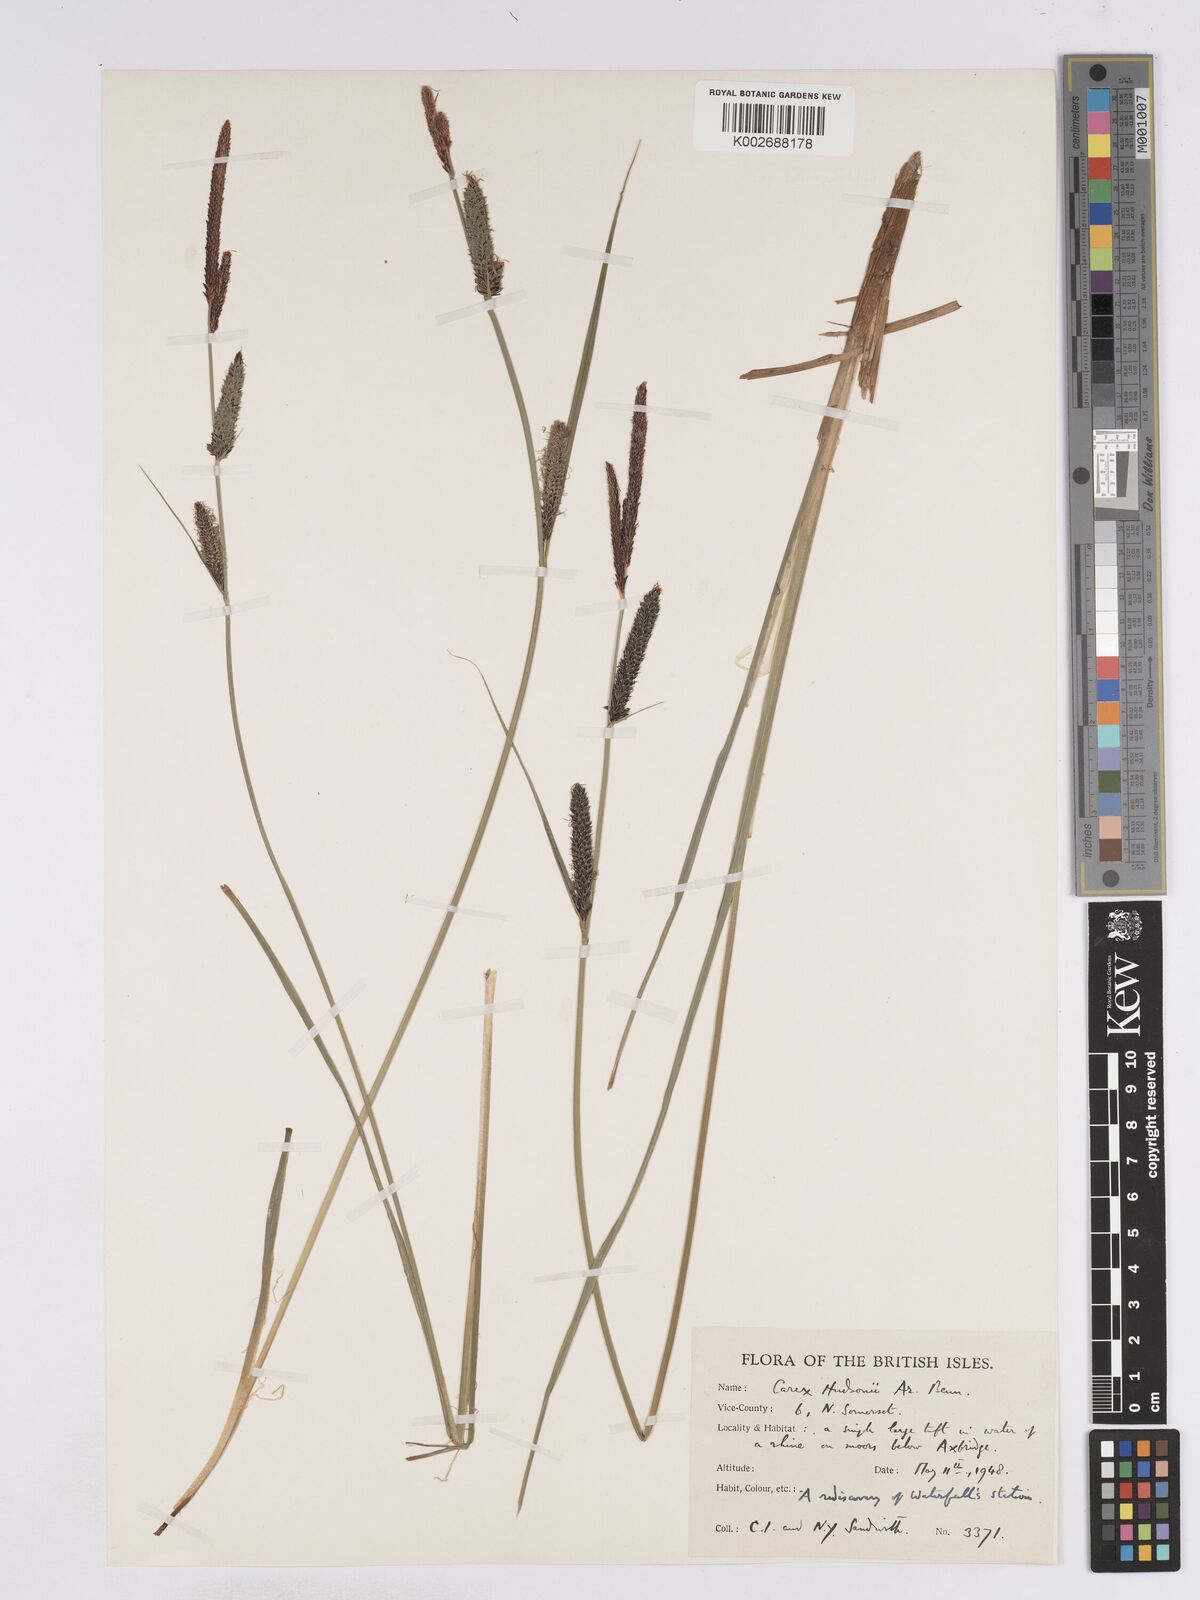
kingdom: Plantae
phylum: Tracheophyta
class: Liliopsida
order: Poales
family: Cyperaceae
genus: Carex
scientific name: Carex elata
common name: Tufted sedge
